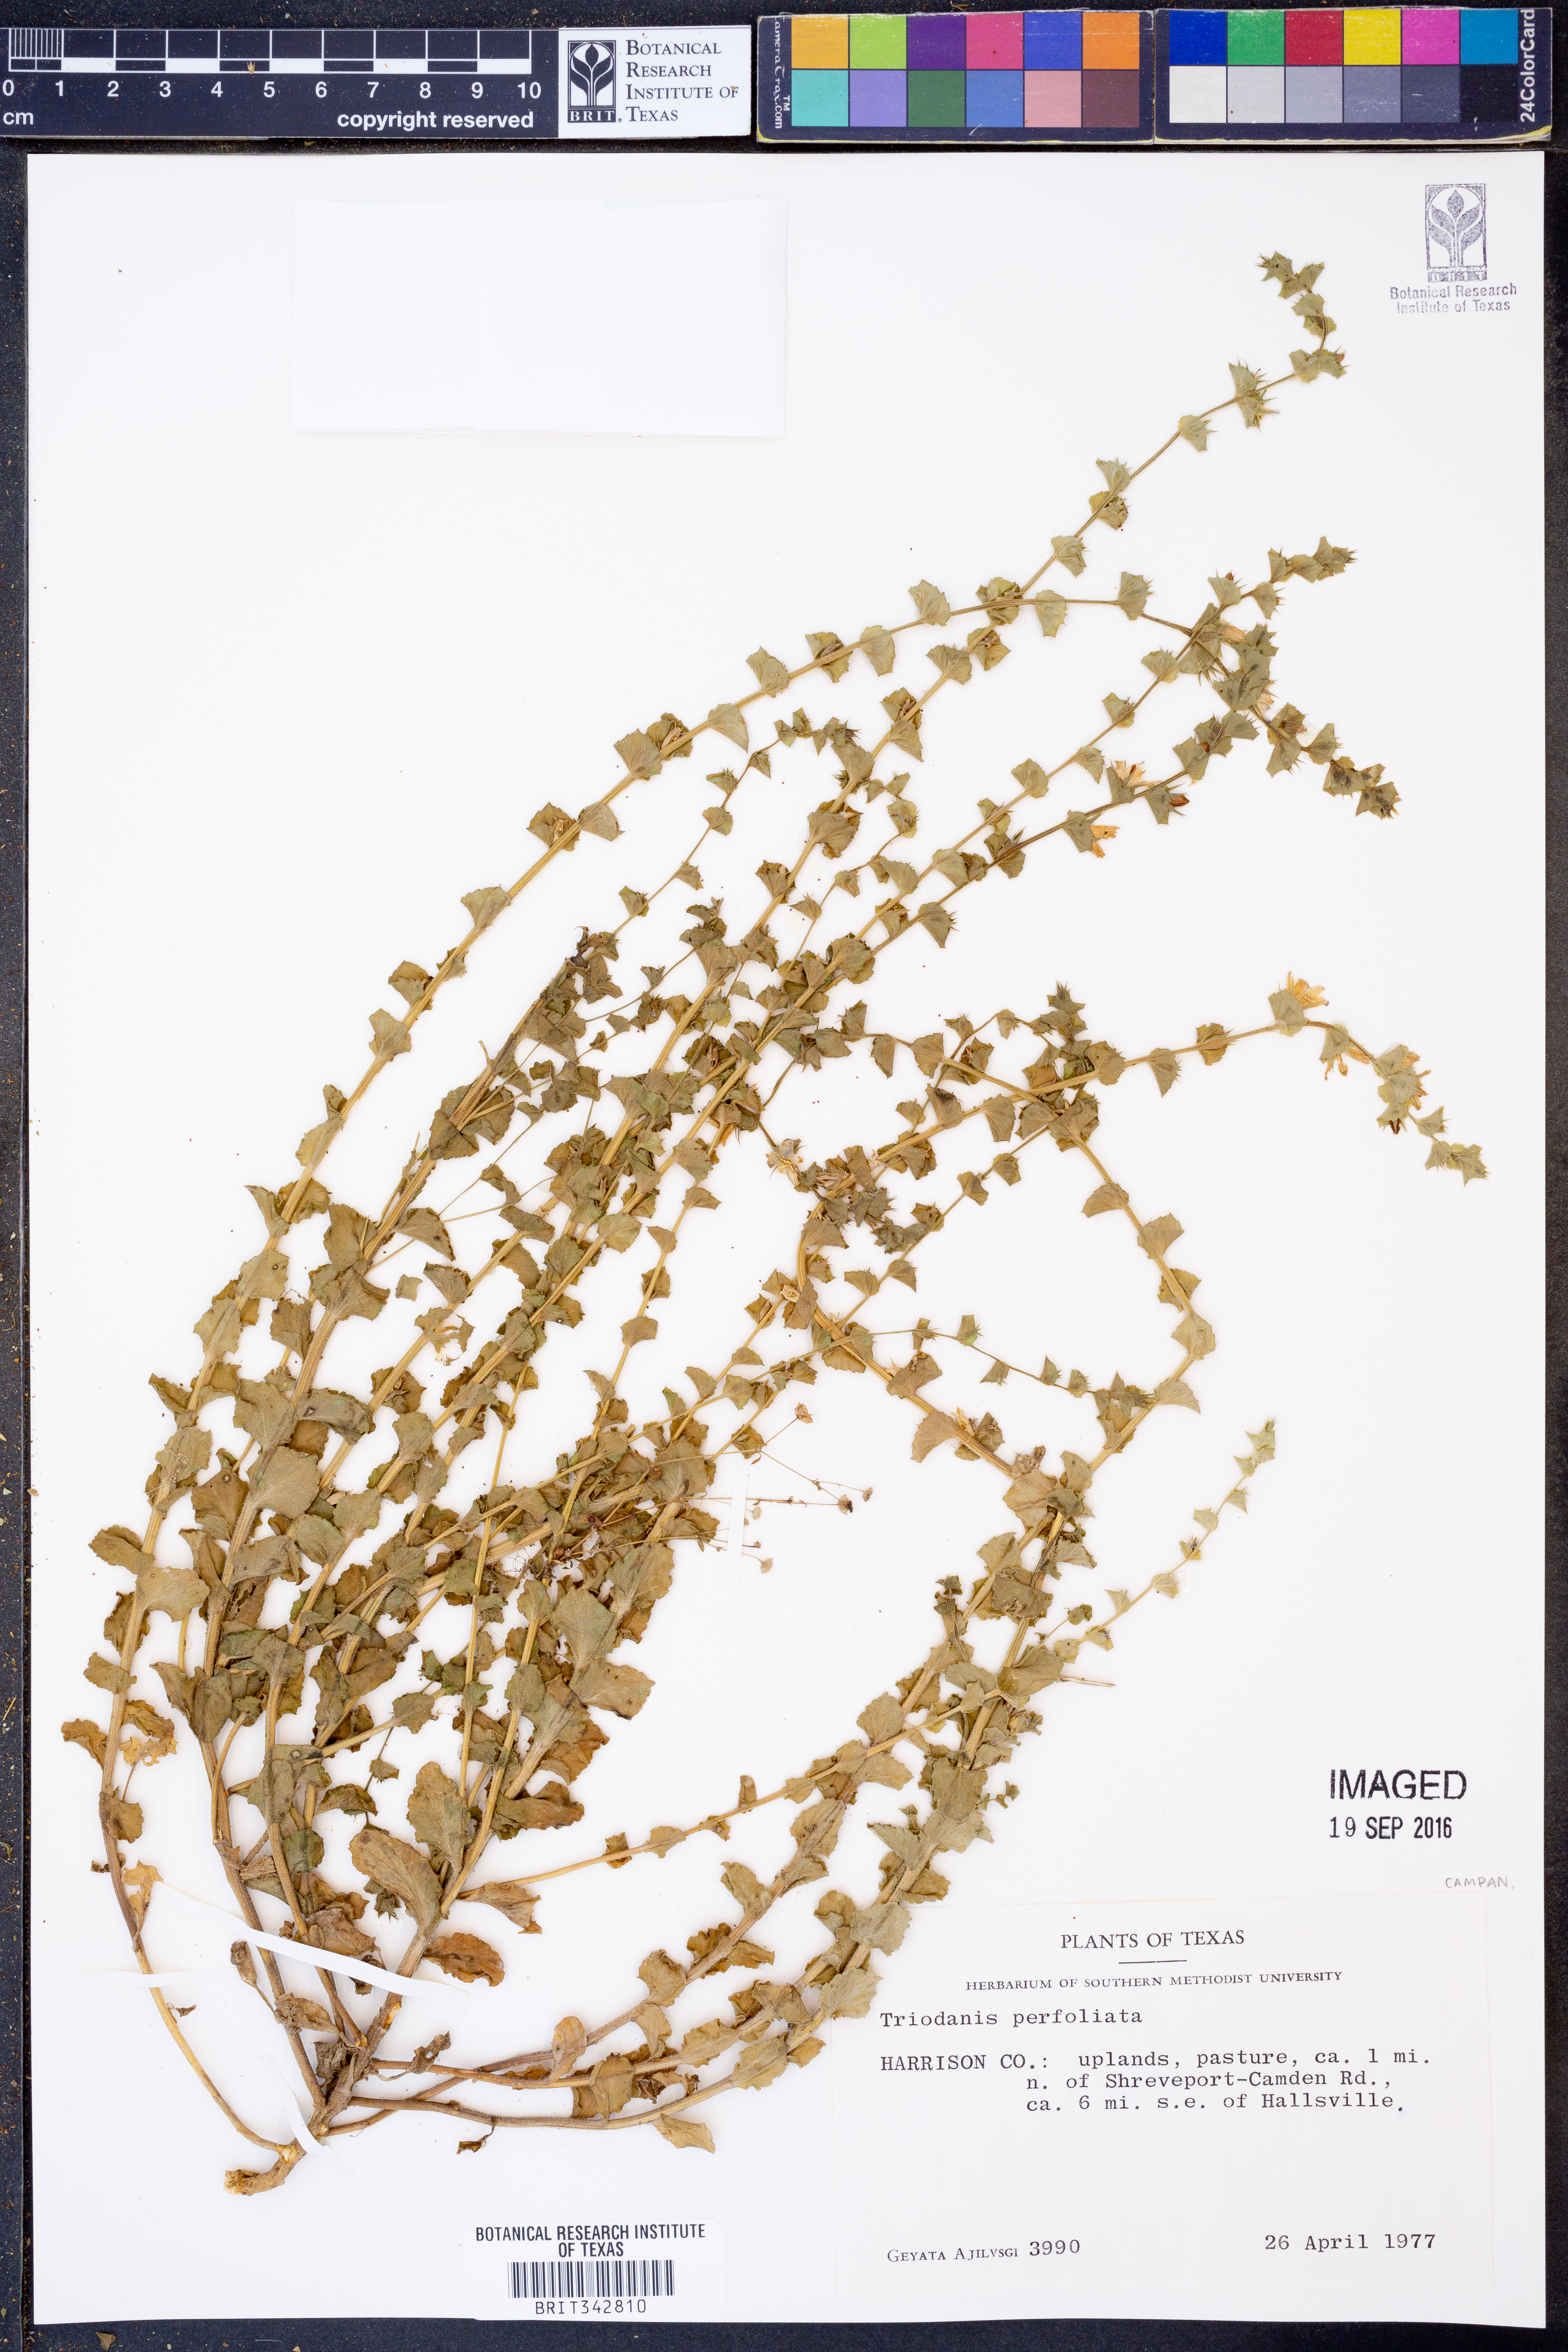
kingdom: Plantae
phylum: Tracheophyta
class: Magnoliopsida
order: Asterales
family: Campanulaceae
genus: Triodanis
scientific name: Triodanis perfoliata
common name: Clasping venus' looking-glass
